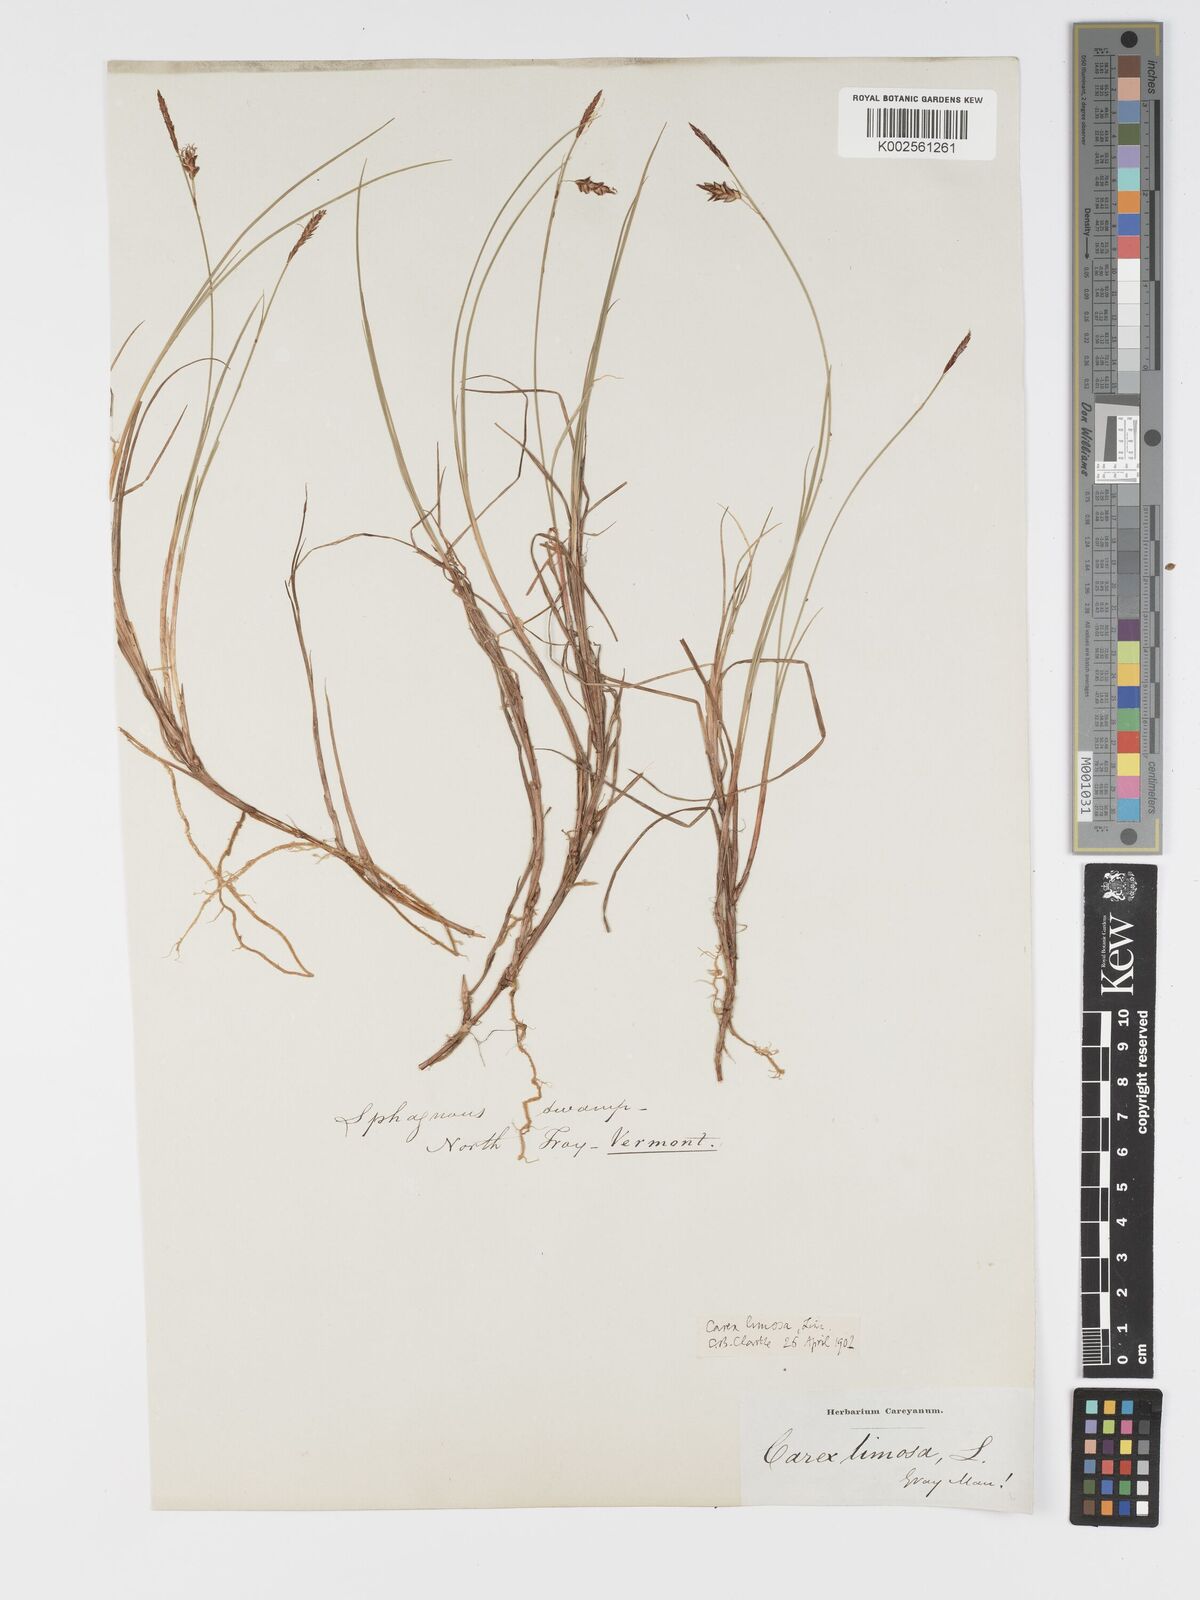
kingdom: Plantae
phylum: Tracheophyta
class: Liliopsida
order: Poales
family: Cyperaceae
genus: Carex
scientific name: Carex limosa
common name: Bog sedge
